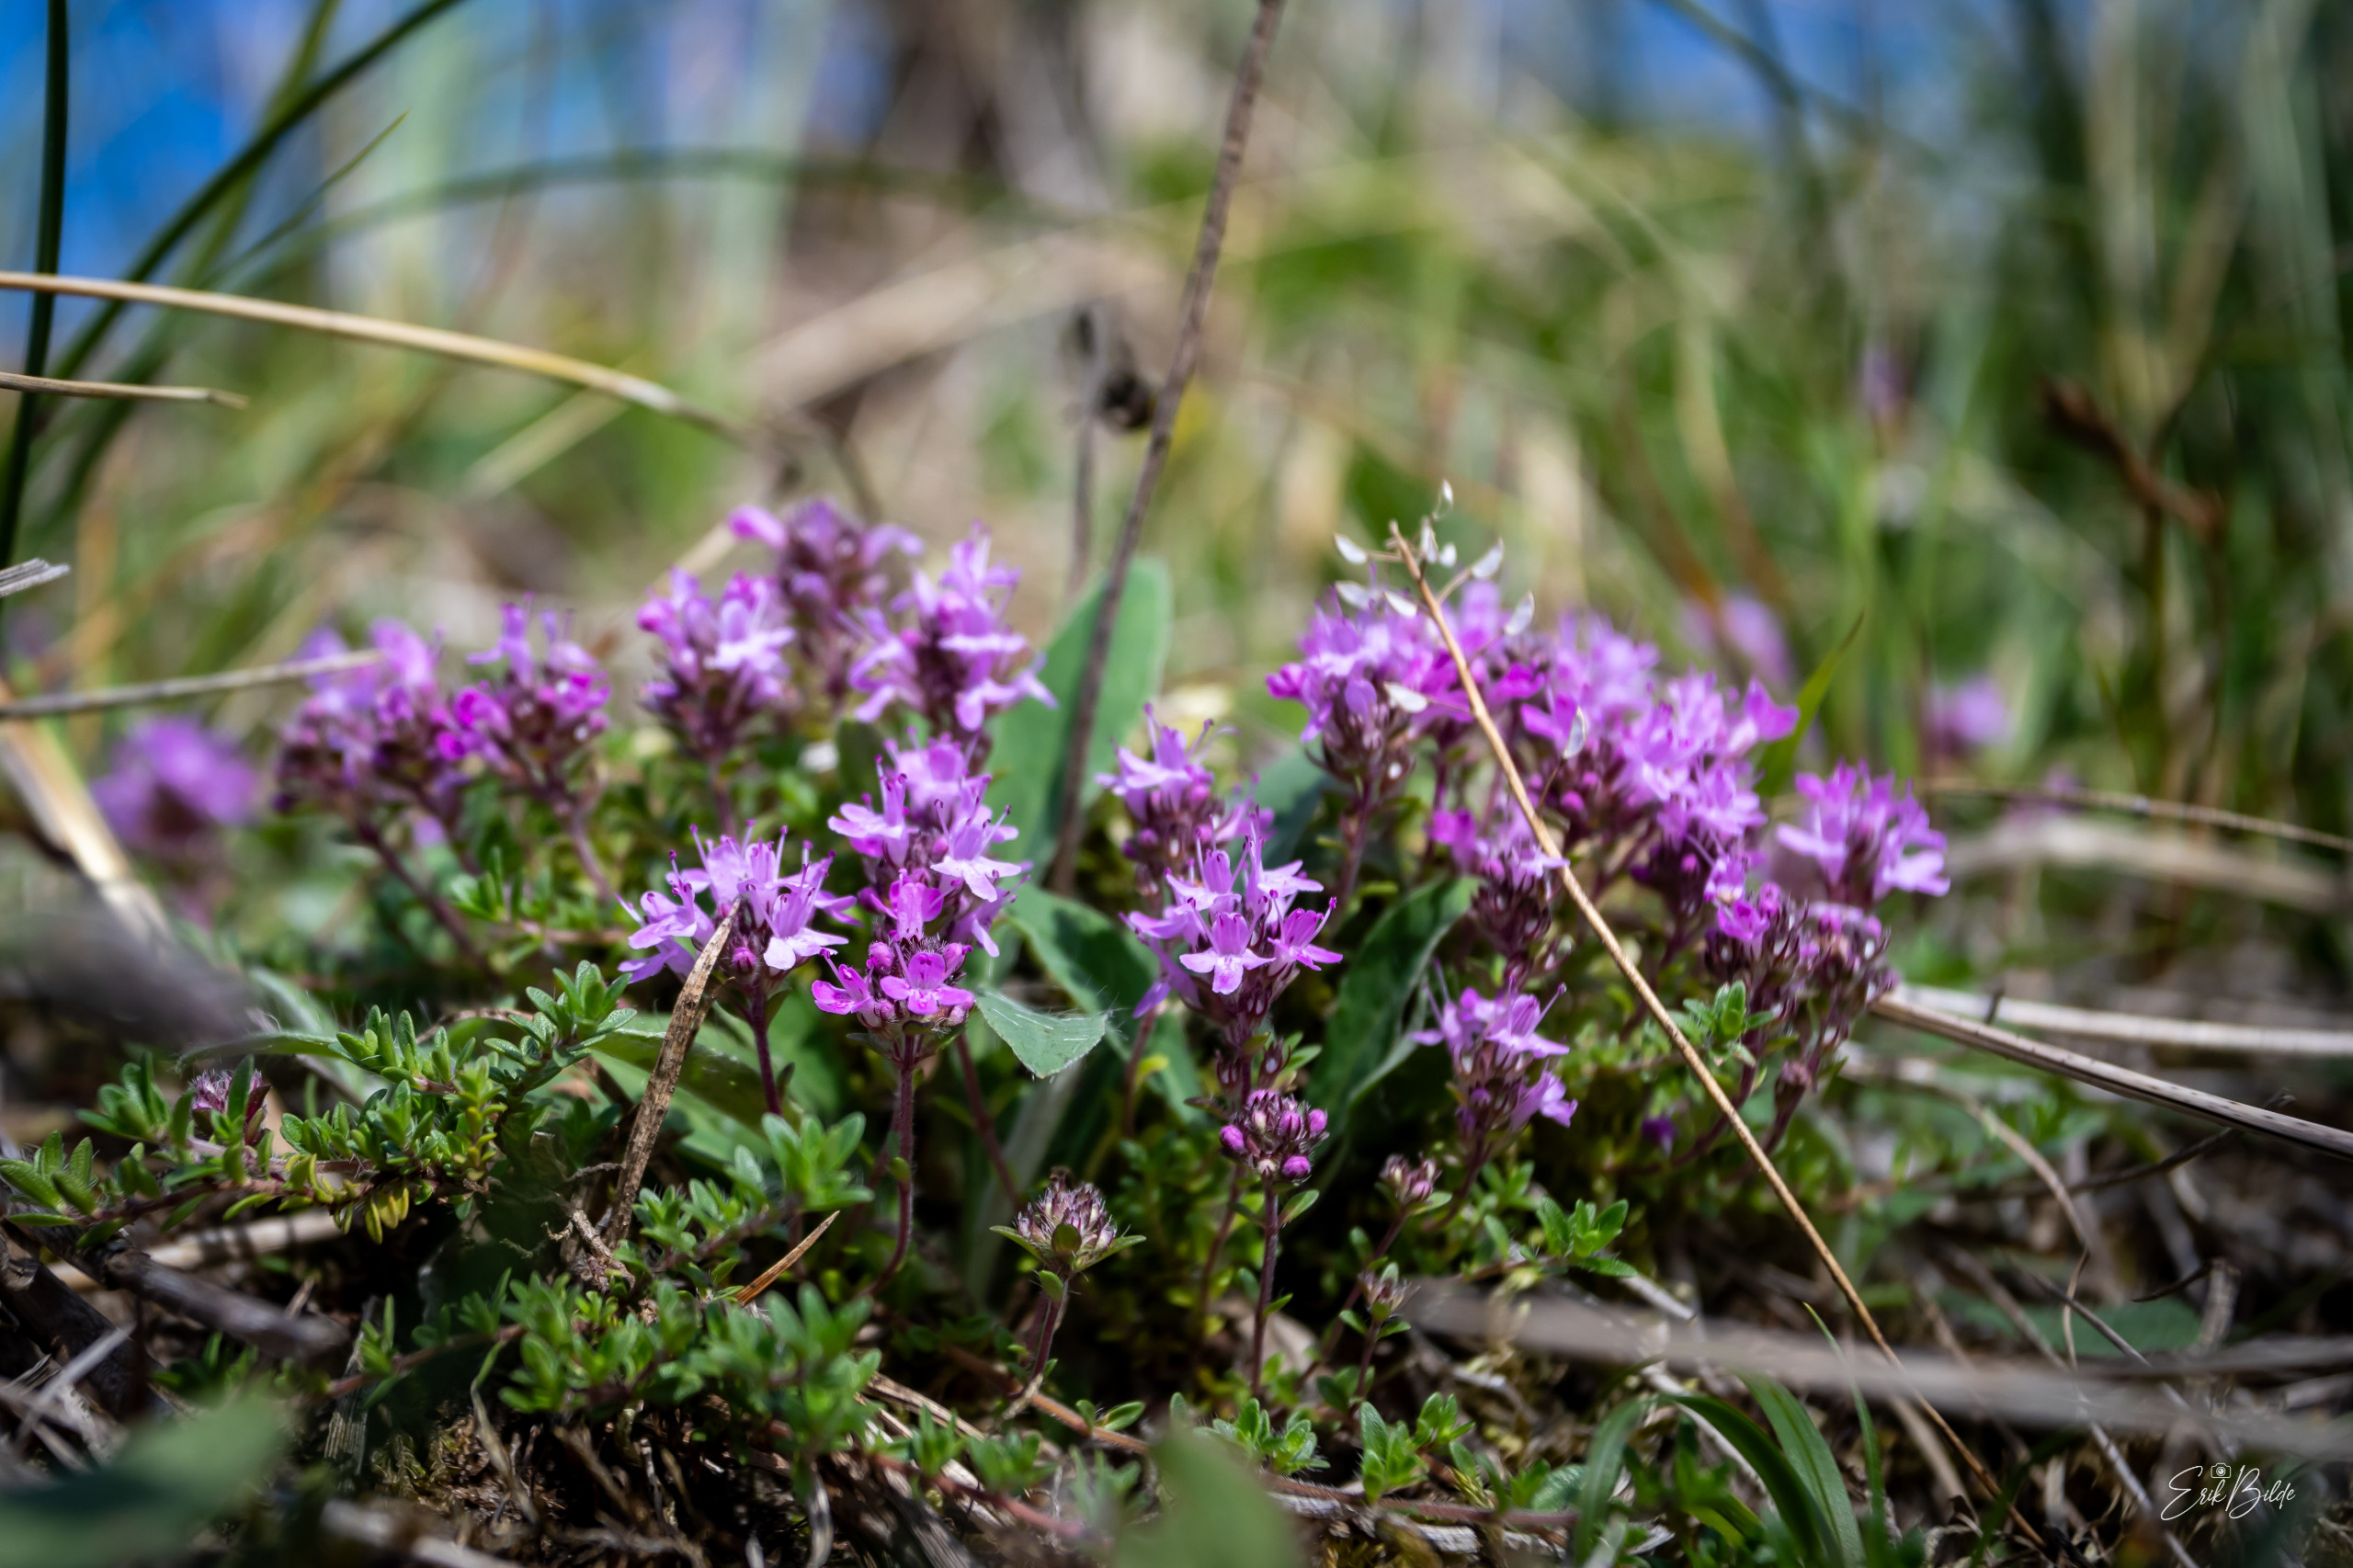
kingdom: Plantae
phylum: Tracheophyta
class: Magnoliopsida
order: Lamiales
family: Lamiaceae
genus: Thymus
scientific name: Thymus serpyllum
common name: Smalbladet timian
